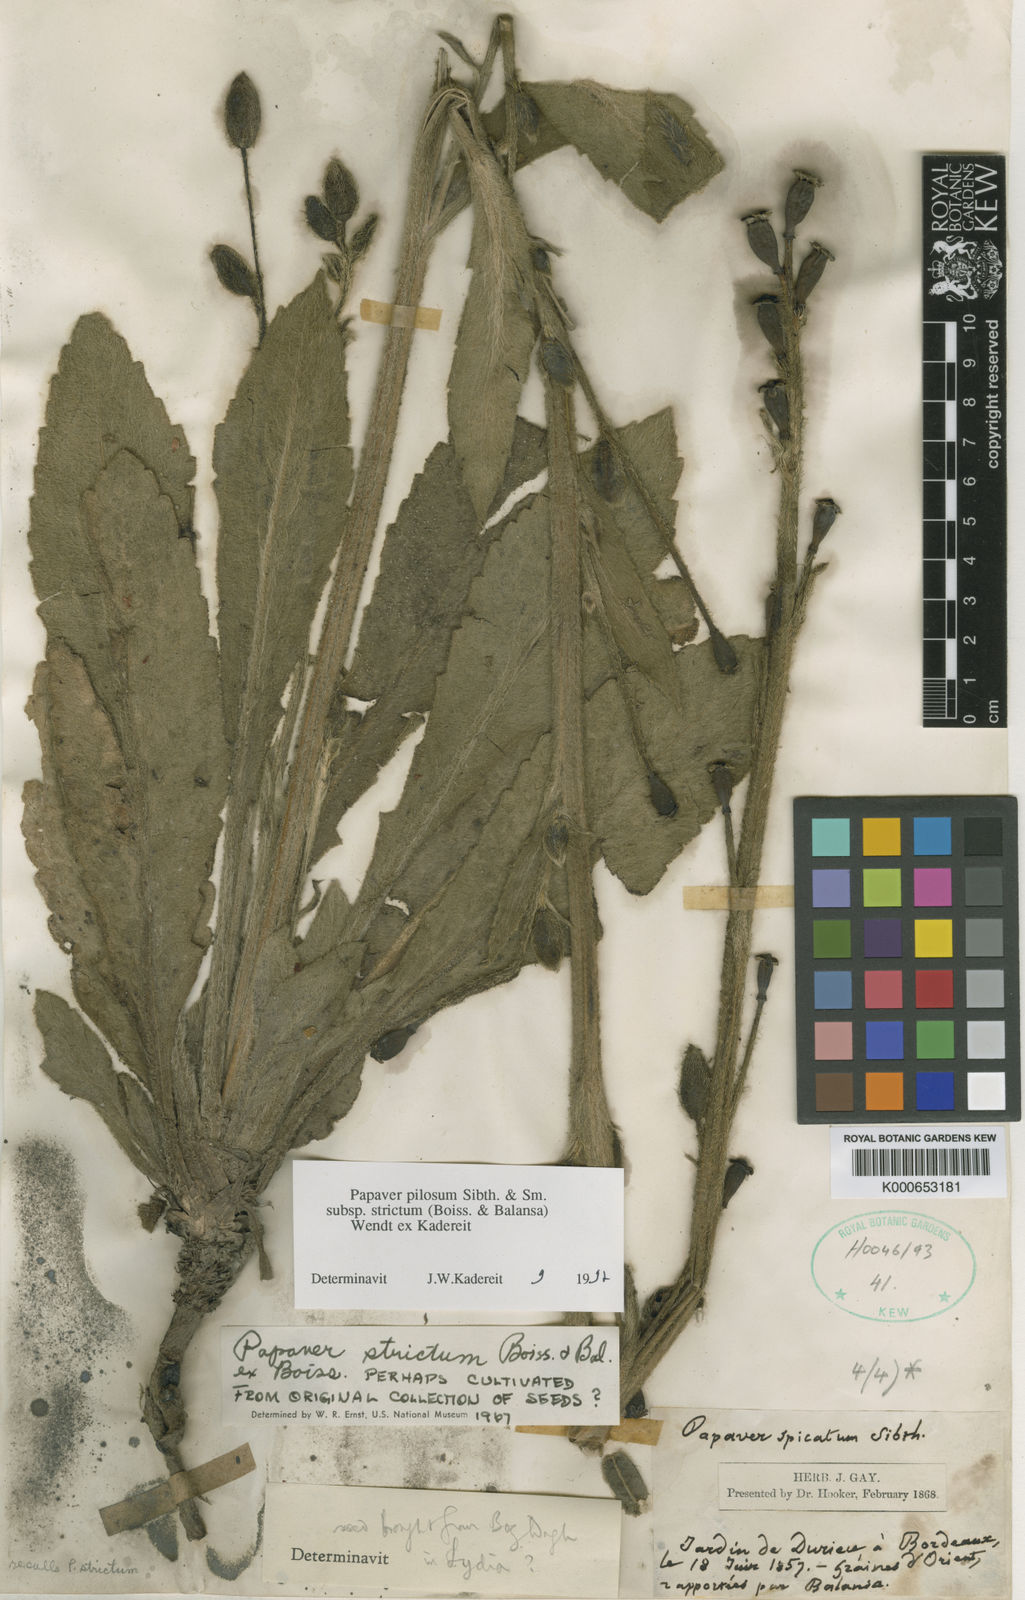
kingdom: Plantae
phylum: Tracheophyta
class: Magnoliopsida
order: Ranunculales
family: Papaveraceae
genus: Papaver
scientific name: Papaver pilosum
